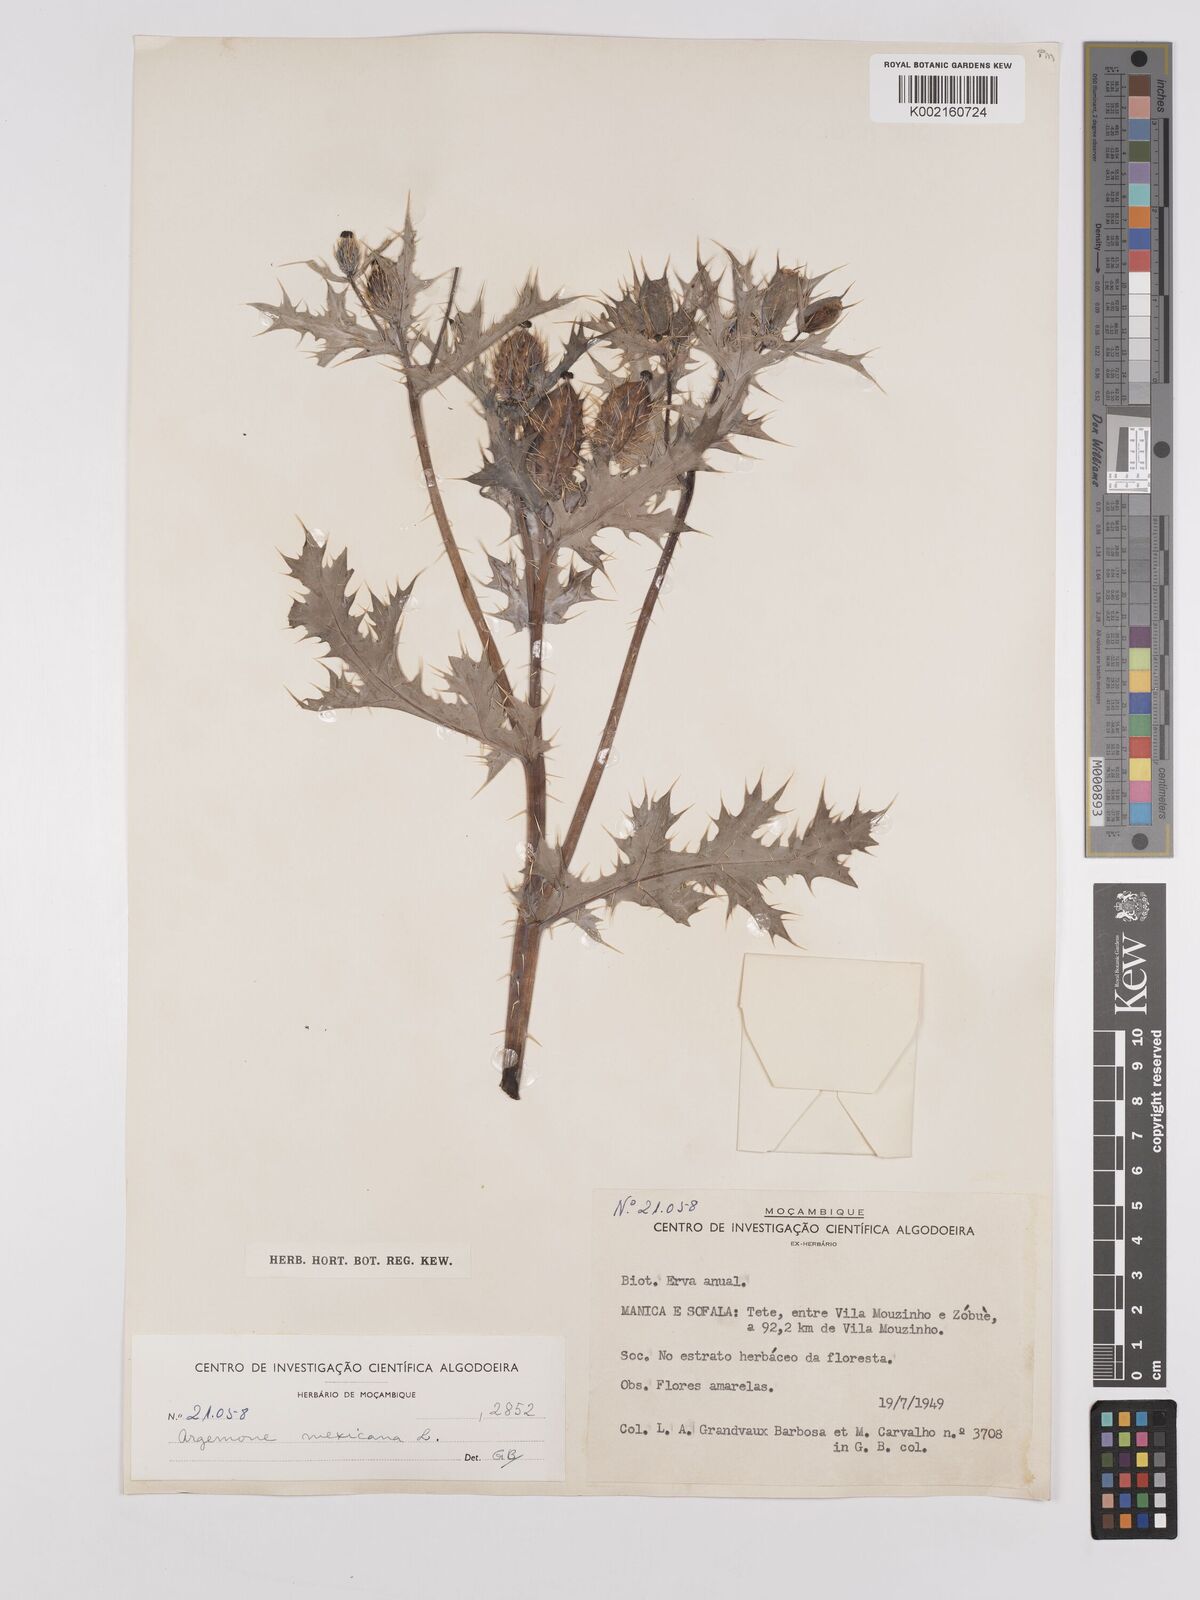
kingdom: Plantae
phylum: Tracheophyta
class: Magnoliopsida
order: Ranunculales
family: Papaveraceae
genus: Argemone
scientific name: Argemone mexicana
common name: Mexican poppy
